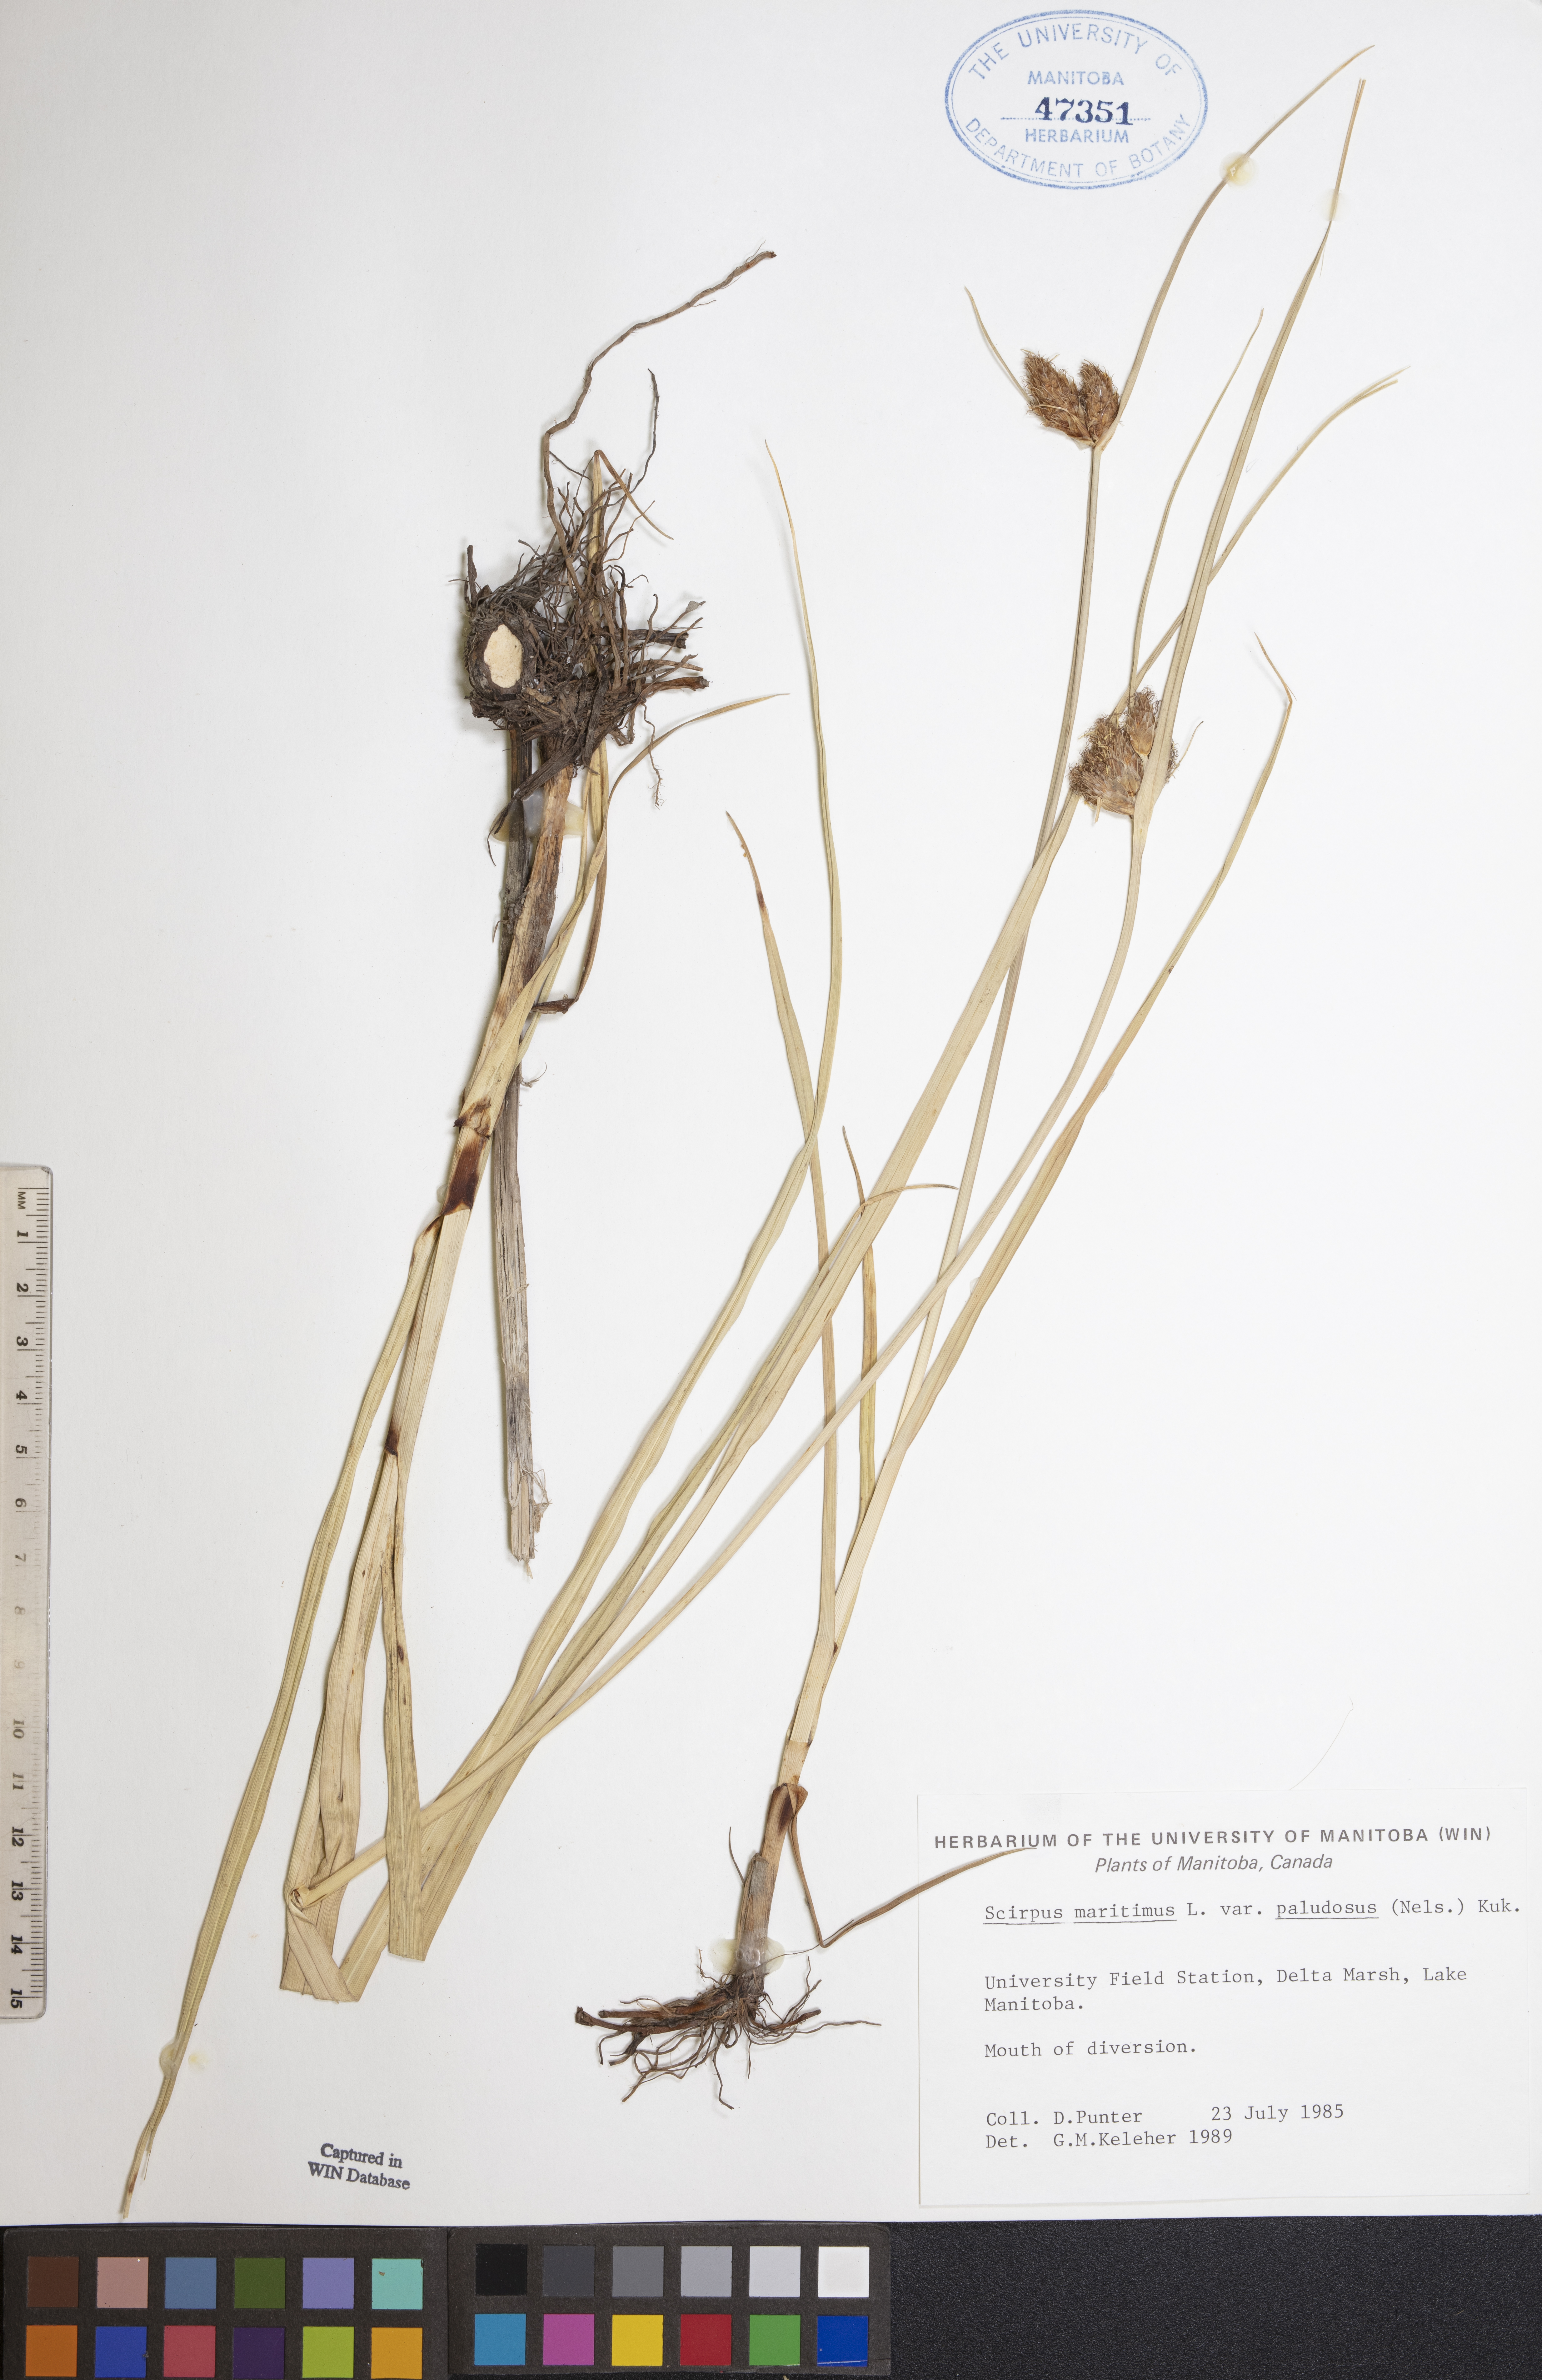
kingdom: Plantae
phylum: Tracheophyta
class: Liliopsida
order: Poales
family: Cyperaceae
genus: Bolboschoenus
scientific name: Bolboschoenus maritimus
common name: Sea club-rush
